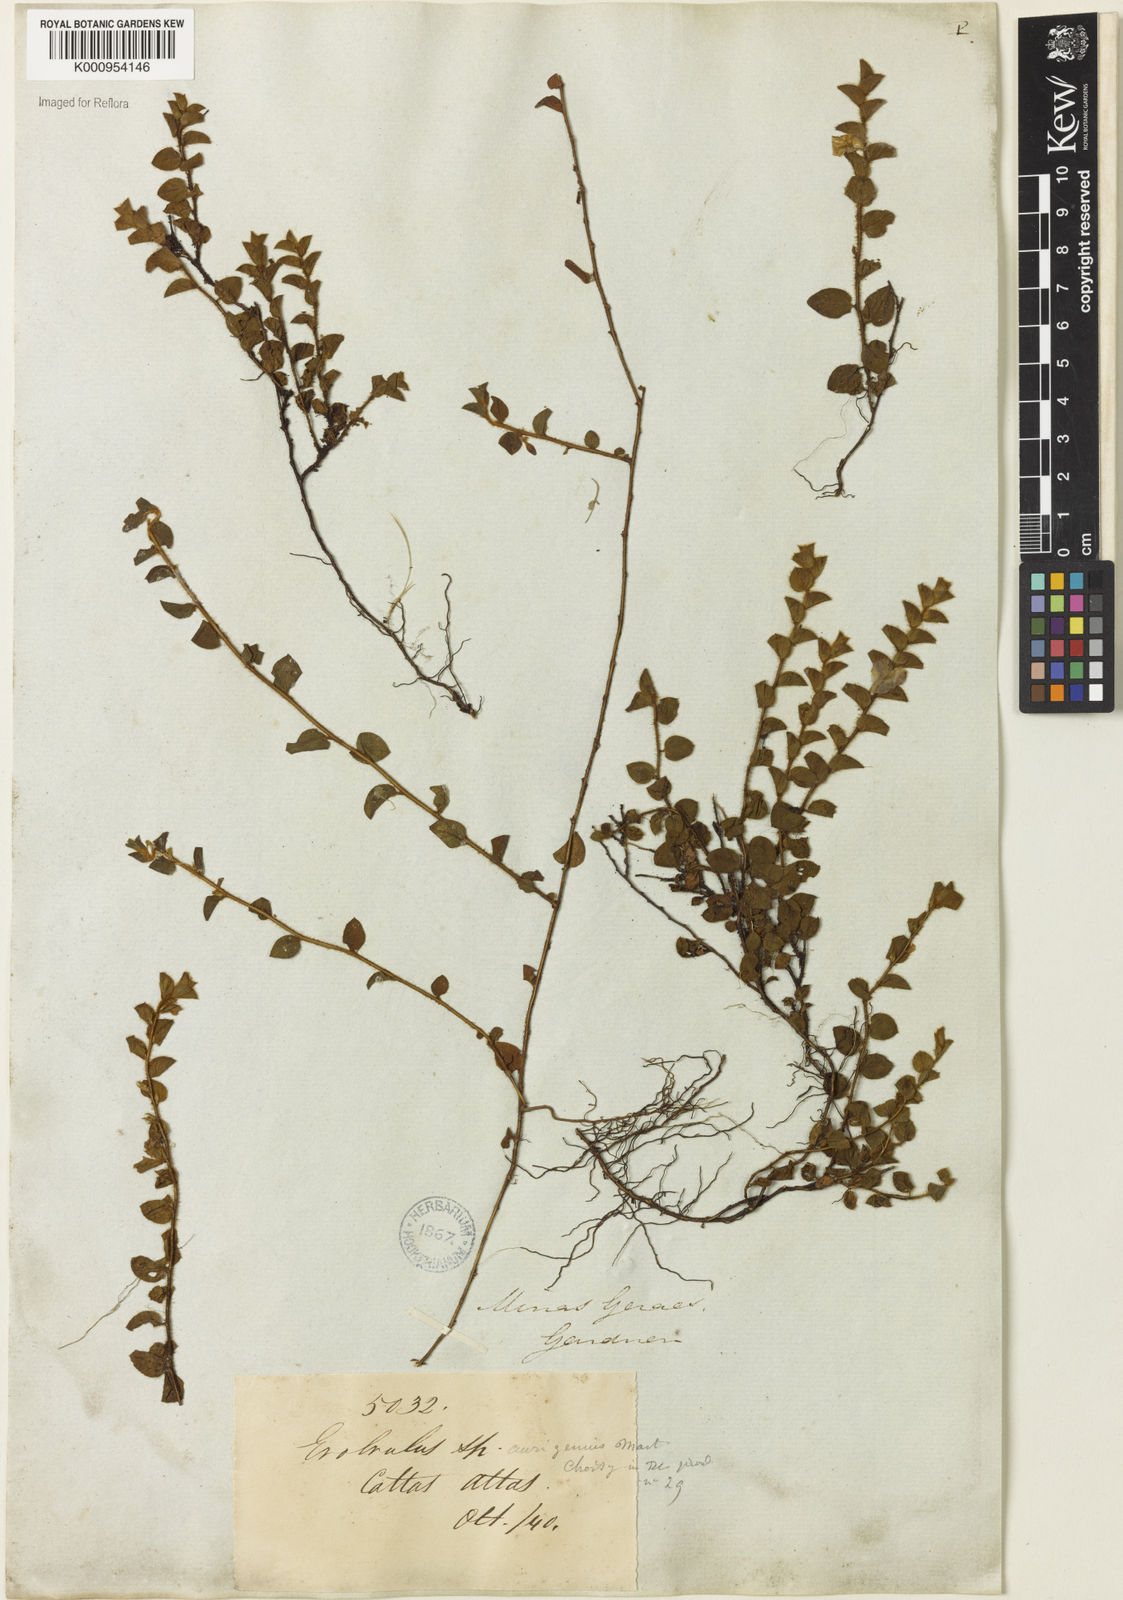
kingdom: Plantae
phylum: Tracheophyta
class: Magnoliopsida
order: Solanales
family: Convolvulaceae
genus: Evolvulus
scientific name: Evolvulus aurigenius
